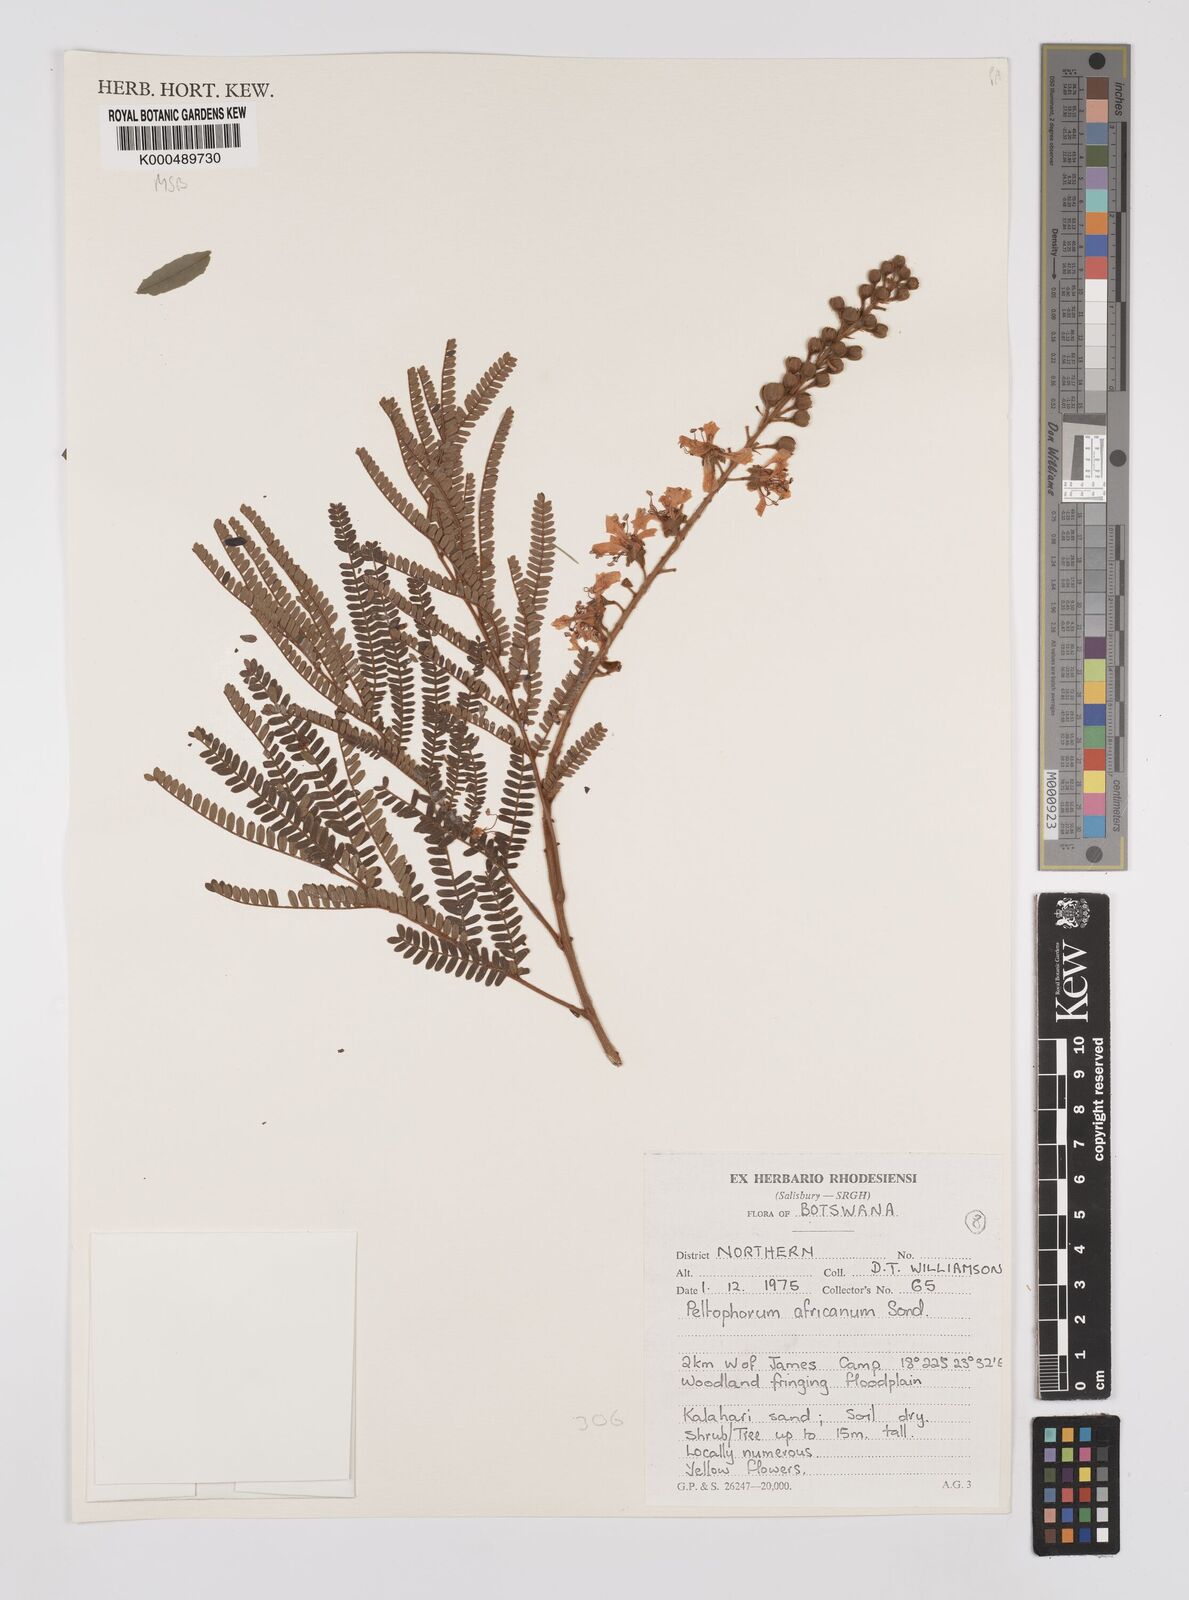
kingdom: Plantae
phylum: Tracheophyta
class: Magnoliopsida
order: Fabales
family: Fabaceae
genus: Peltophorum
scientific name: Peltophorum africanum
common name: African black wattle
